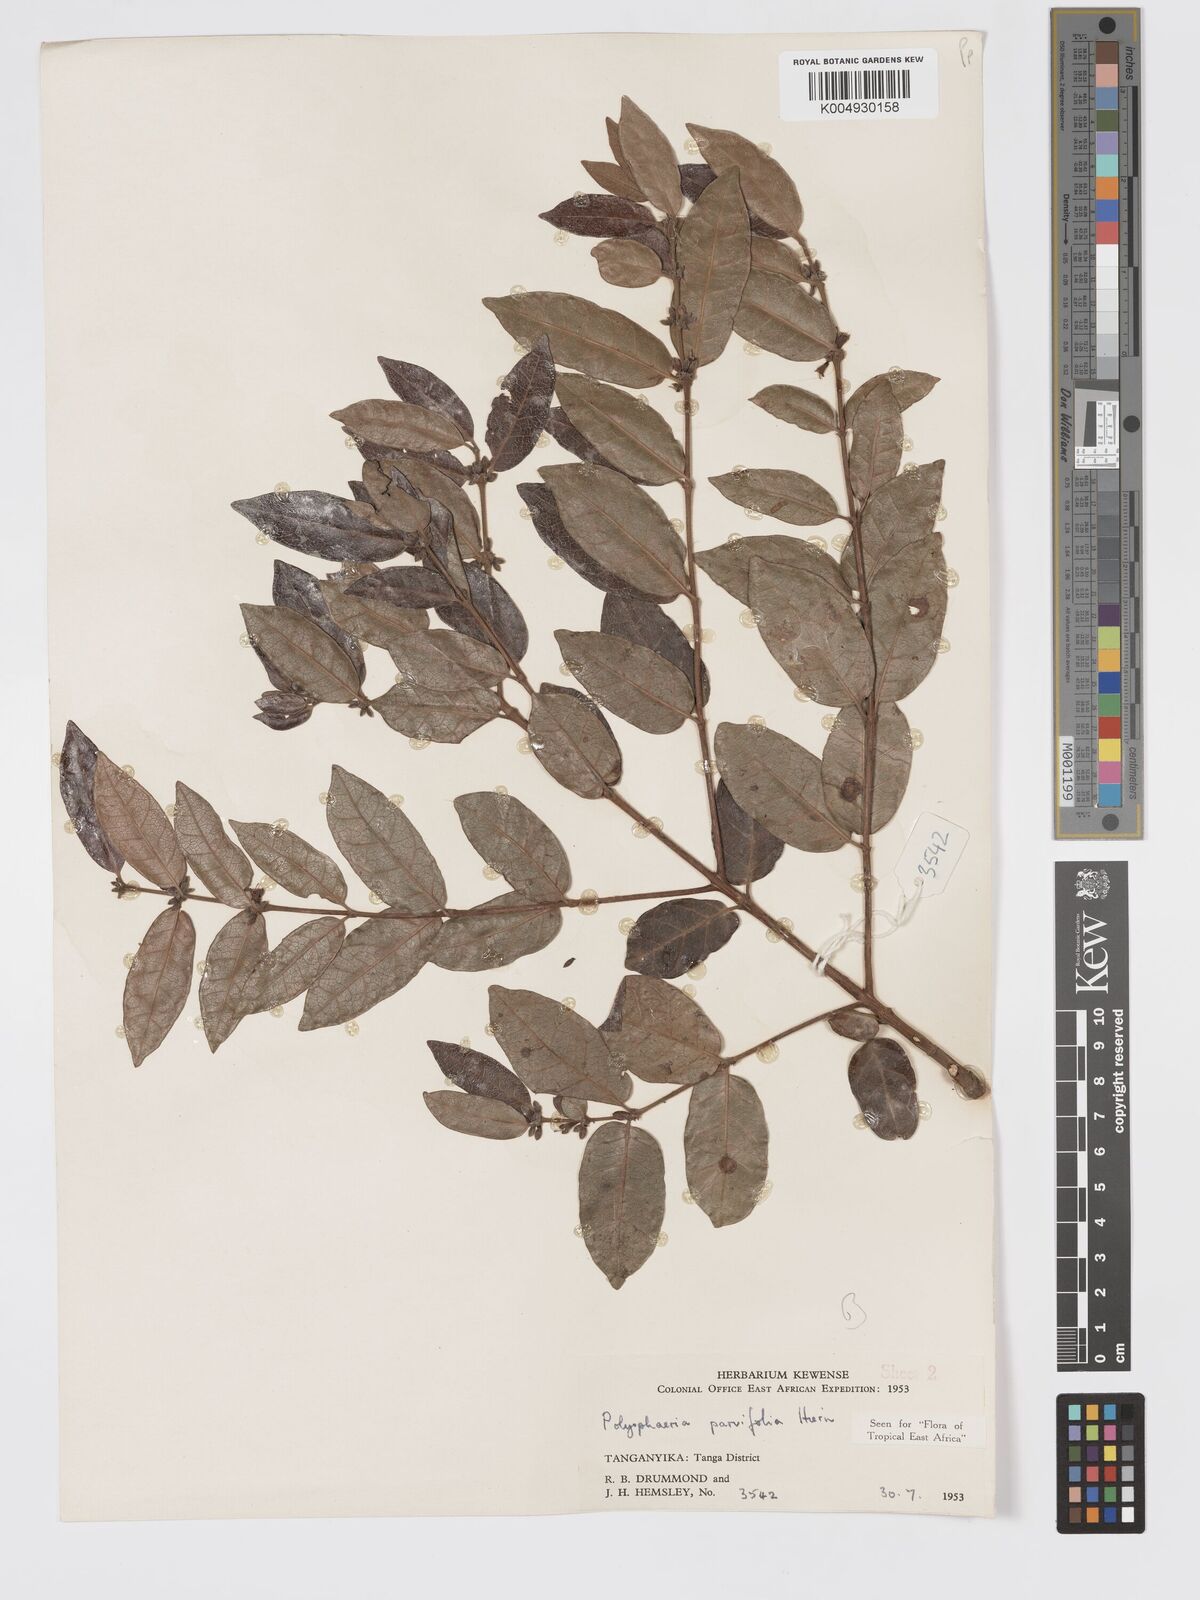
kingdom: Plantae
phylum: Tracheophyta
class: Magnoliopsida
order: Gentianales
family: Rubiaceae
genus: Polysphaeria
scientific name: Polysphaeria parvifolia
